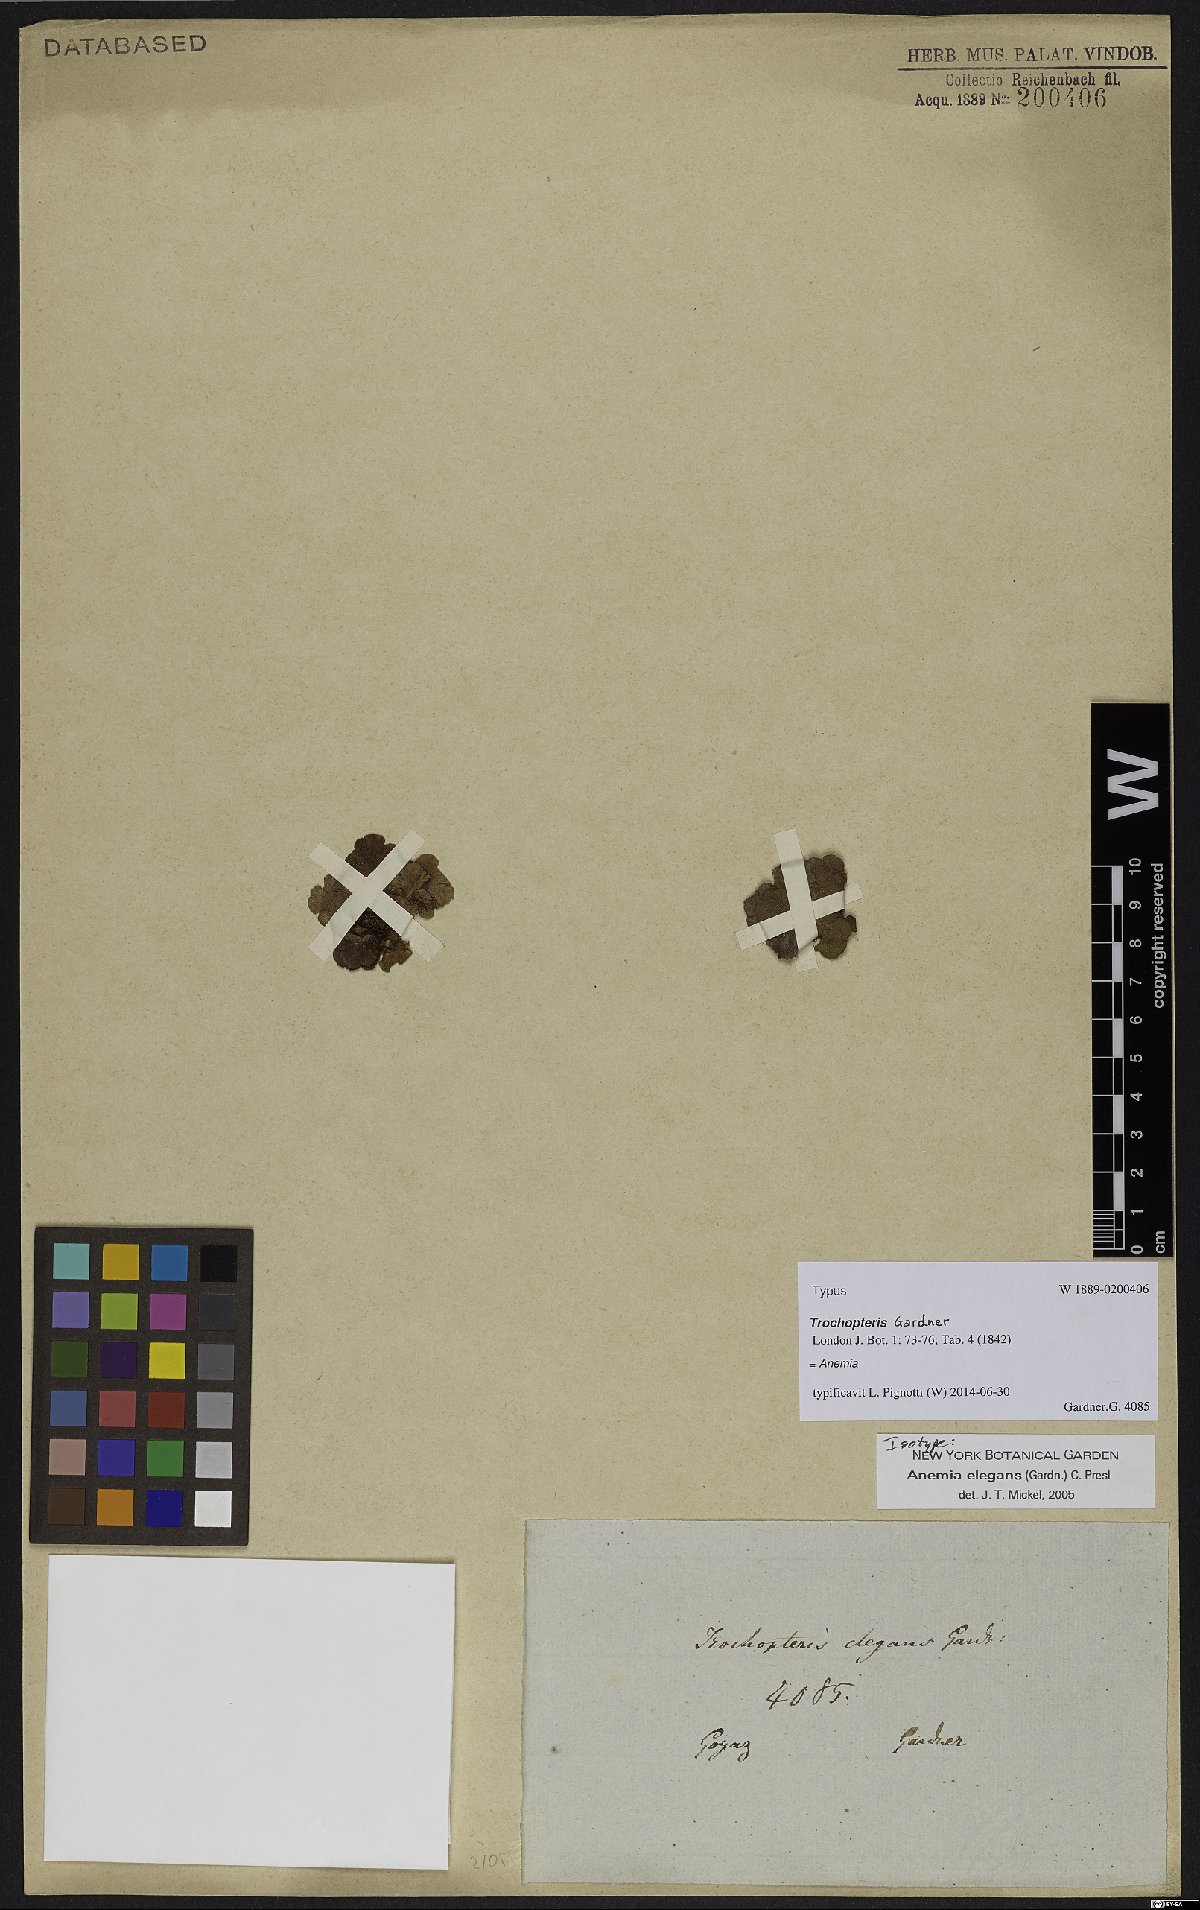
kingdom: Plantae
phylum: Tracheophyta
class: Polypodiopsida
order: Schizaeales
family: Anemiaceae
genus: Anemia
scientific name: Anemia elegans
